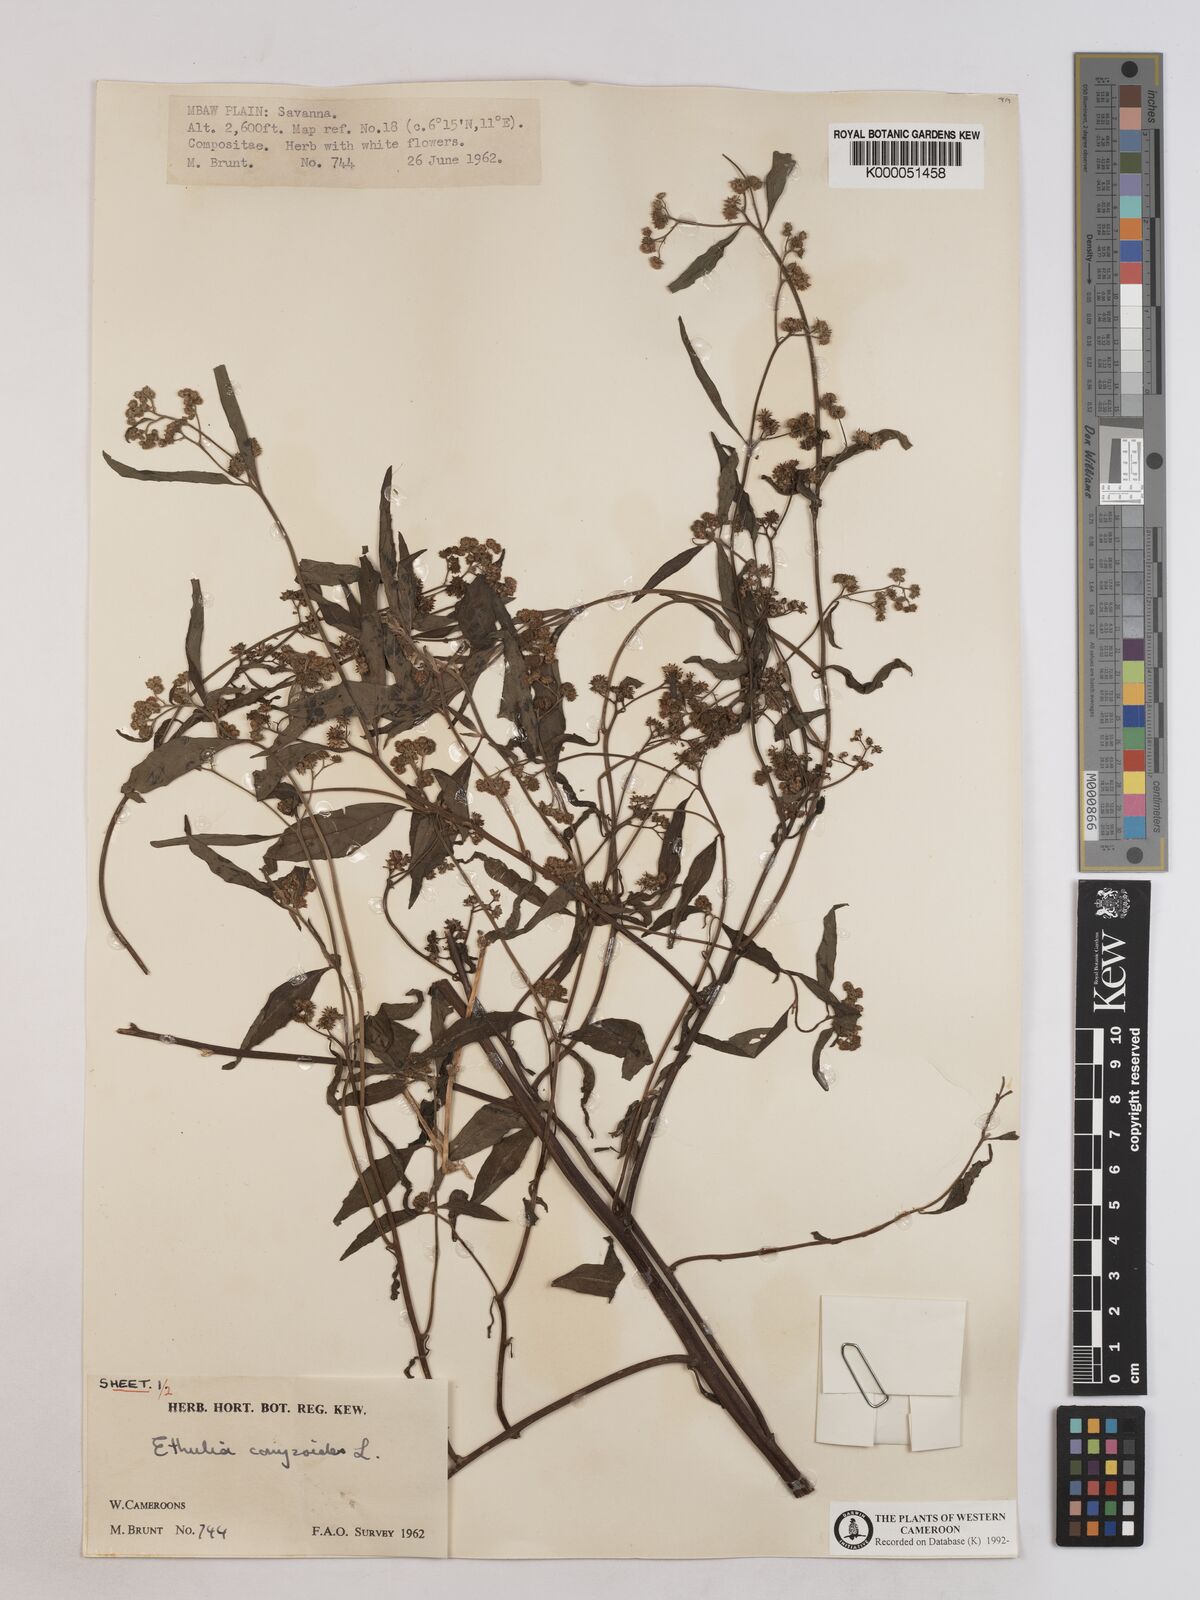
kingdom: Plantae
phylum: Tracheophyta
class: Magnoliopsida
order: Asterales
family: Asteraceae
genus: Ethulia
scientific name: Ethulia conyzoides
